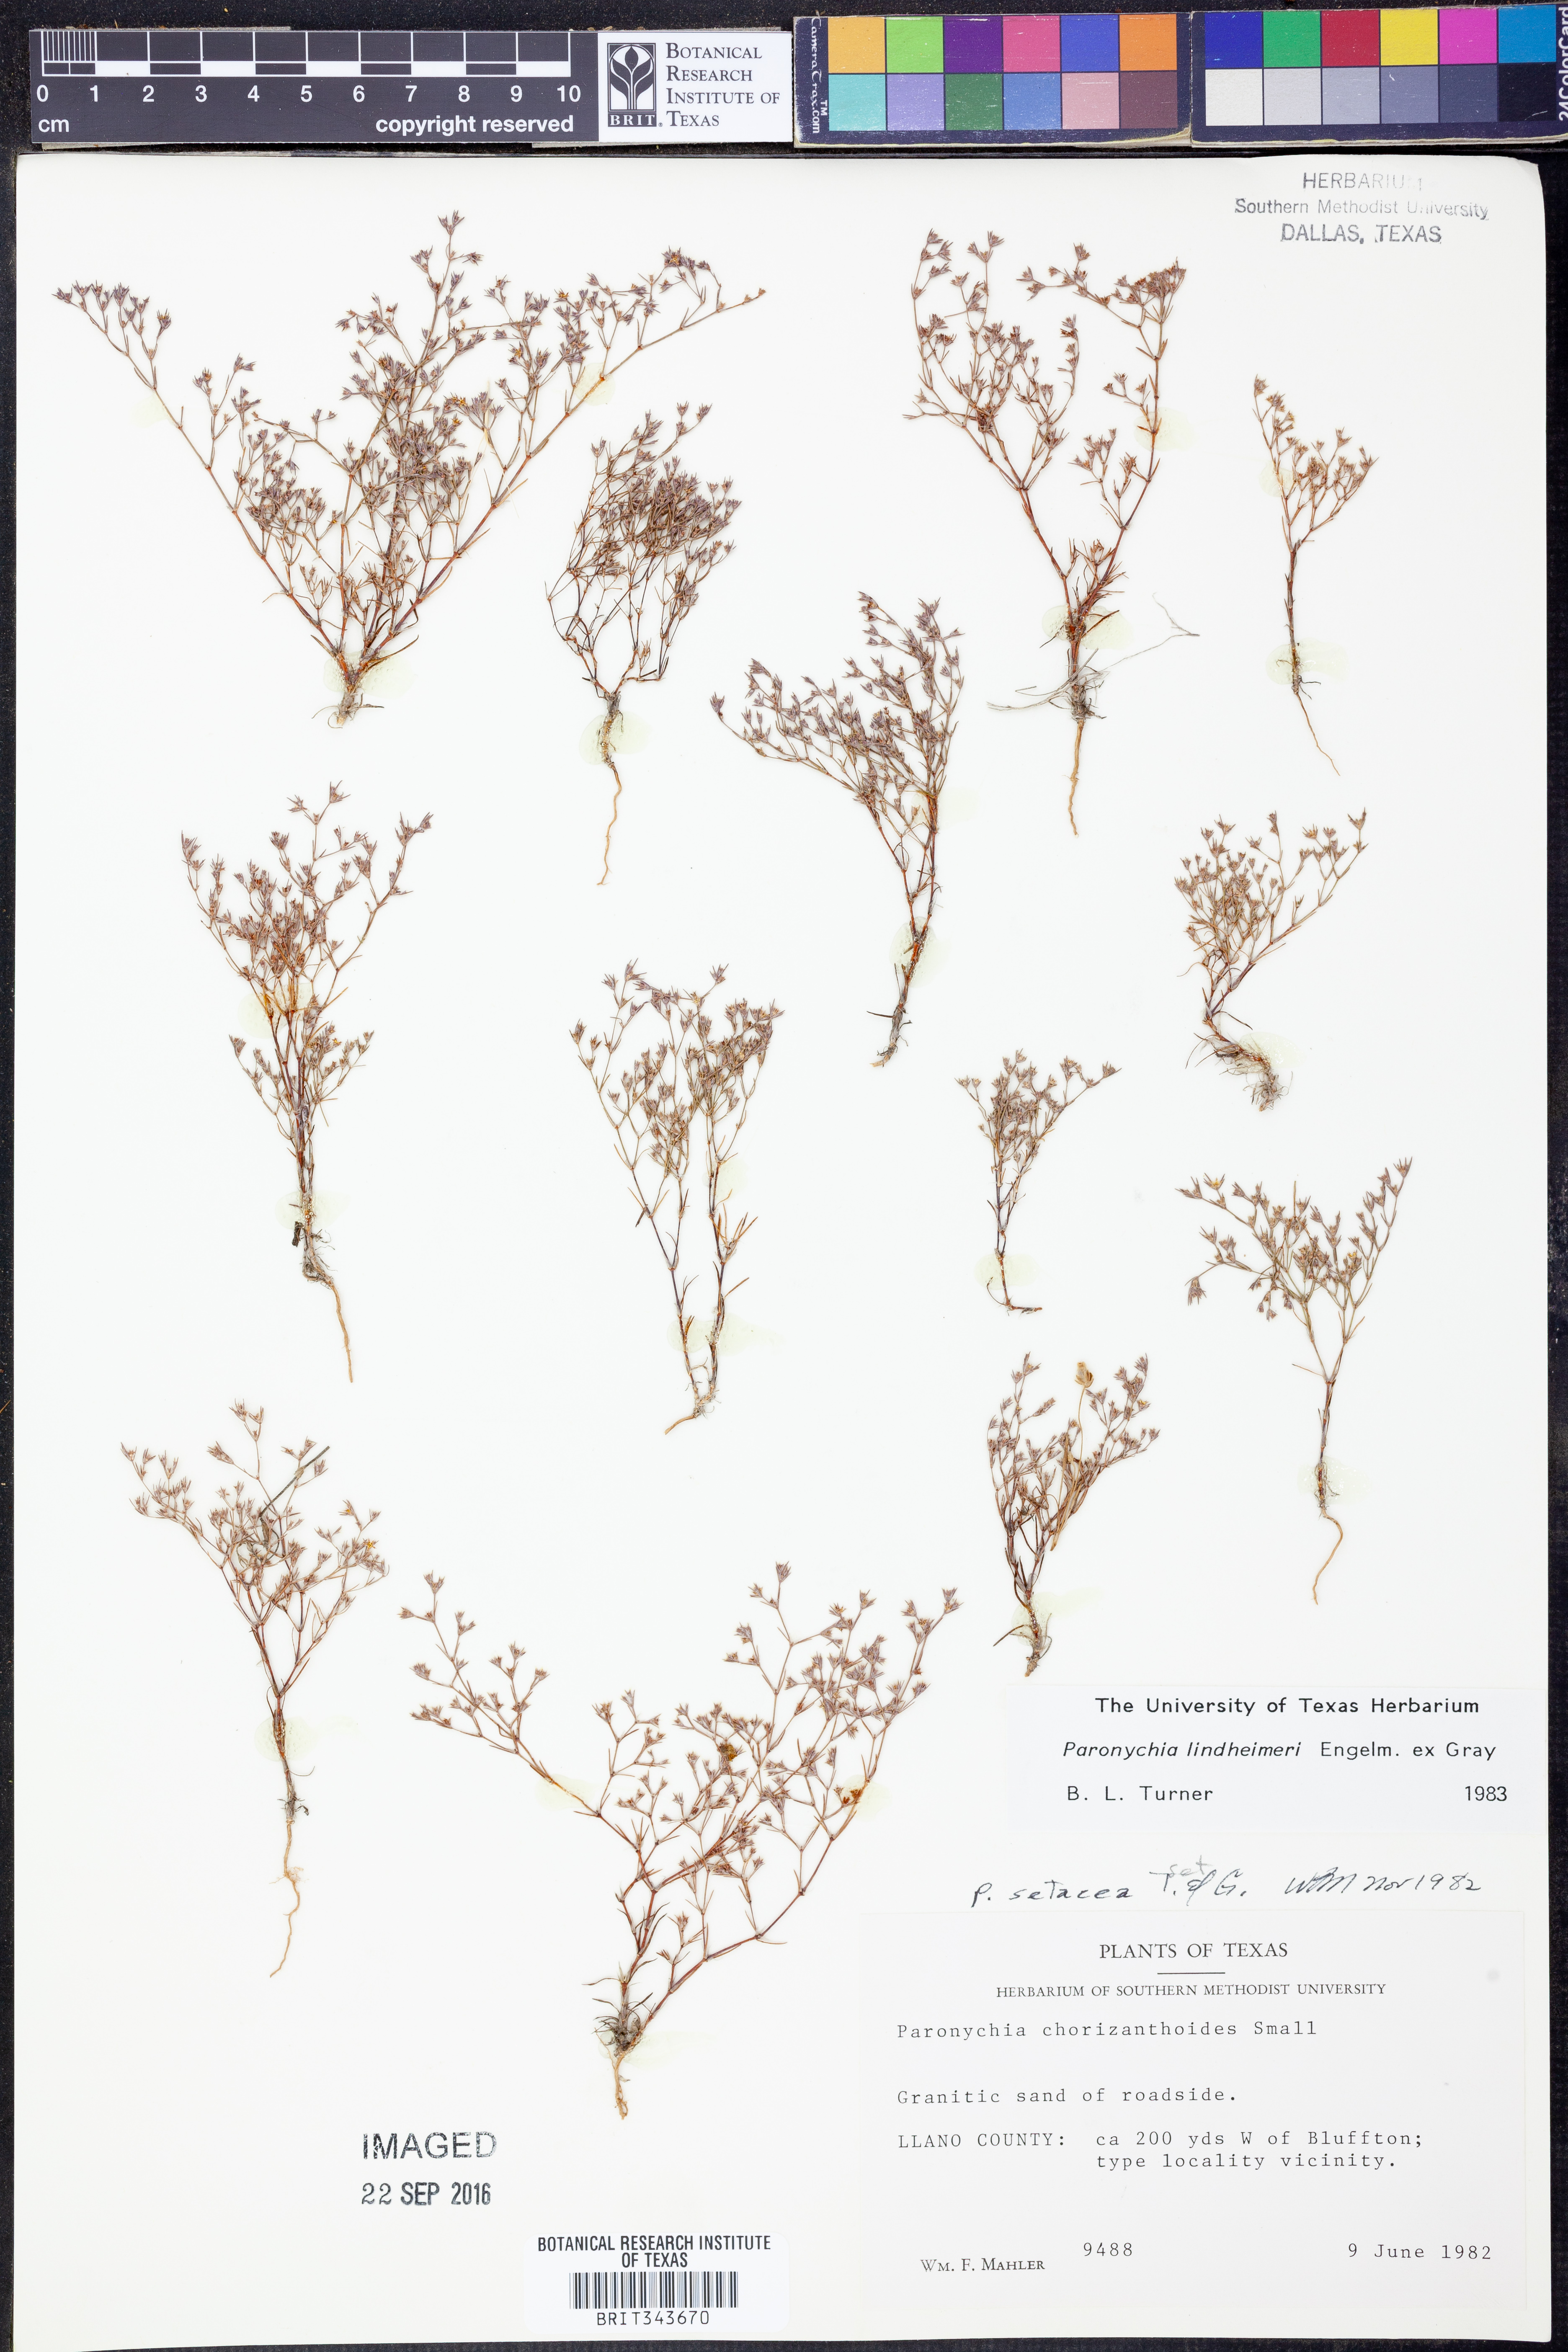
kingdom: Plantae
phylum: Tracheophyta
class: Magnoliopsida
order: Caryophyllales
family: Caryophyllaceae
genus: Paronychia
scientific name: Paronychia lindheimeri
